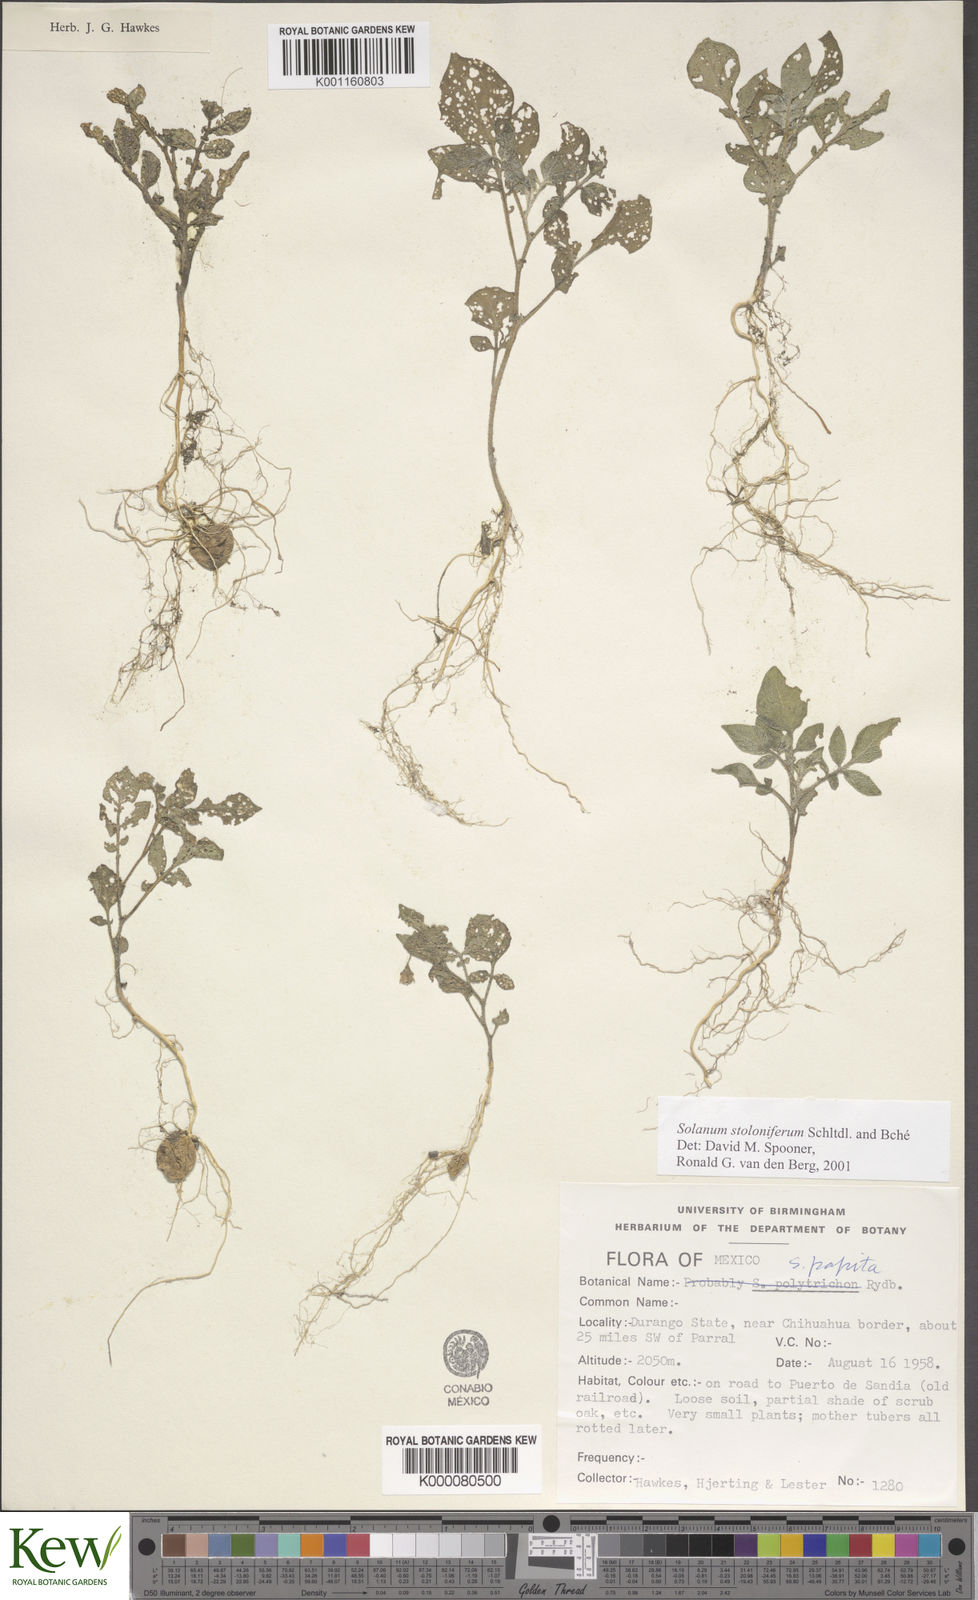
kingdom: Plantae
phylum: Tracheophyta
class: Magnoliopsida
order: Solanales
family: Solanaceae
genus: Solanum
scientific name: Solanum stoloniferum
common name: Fendler's nighshade
